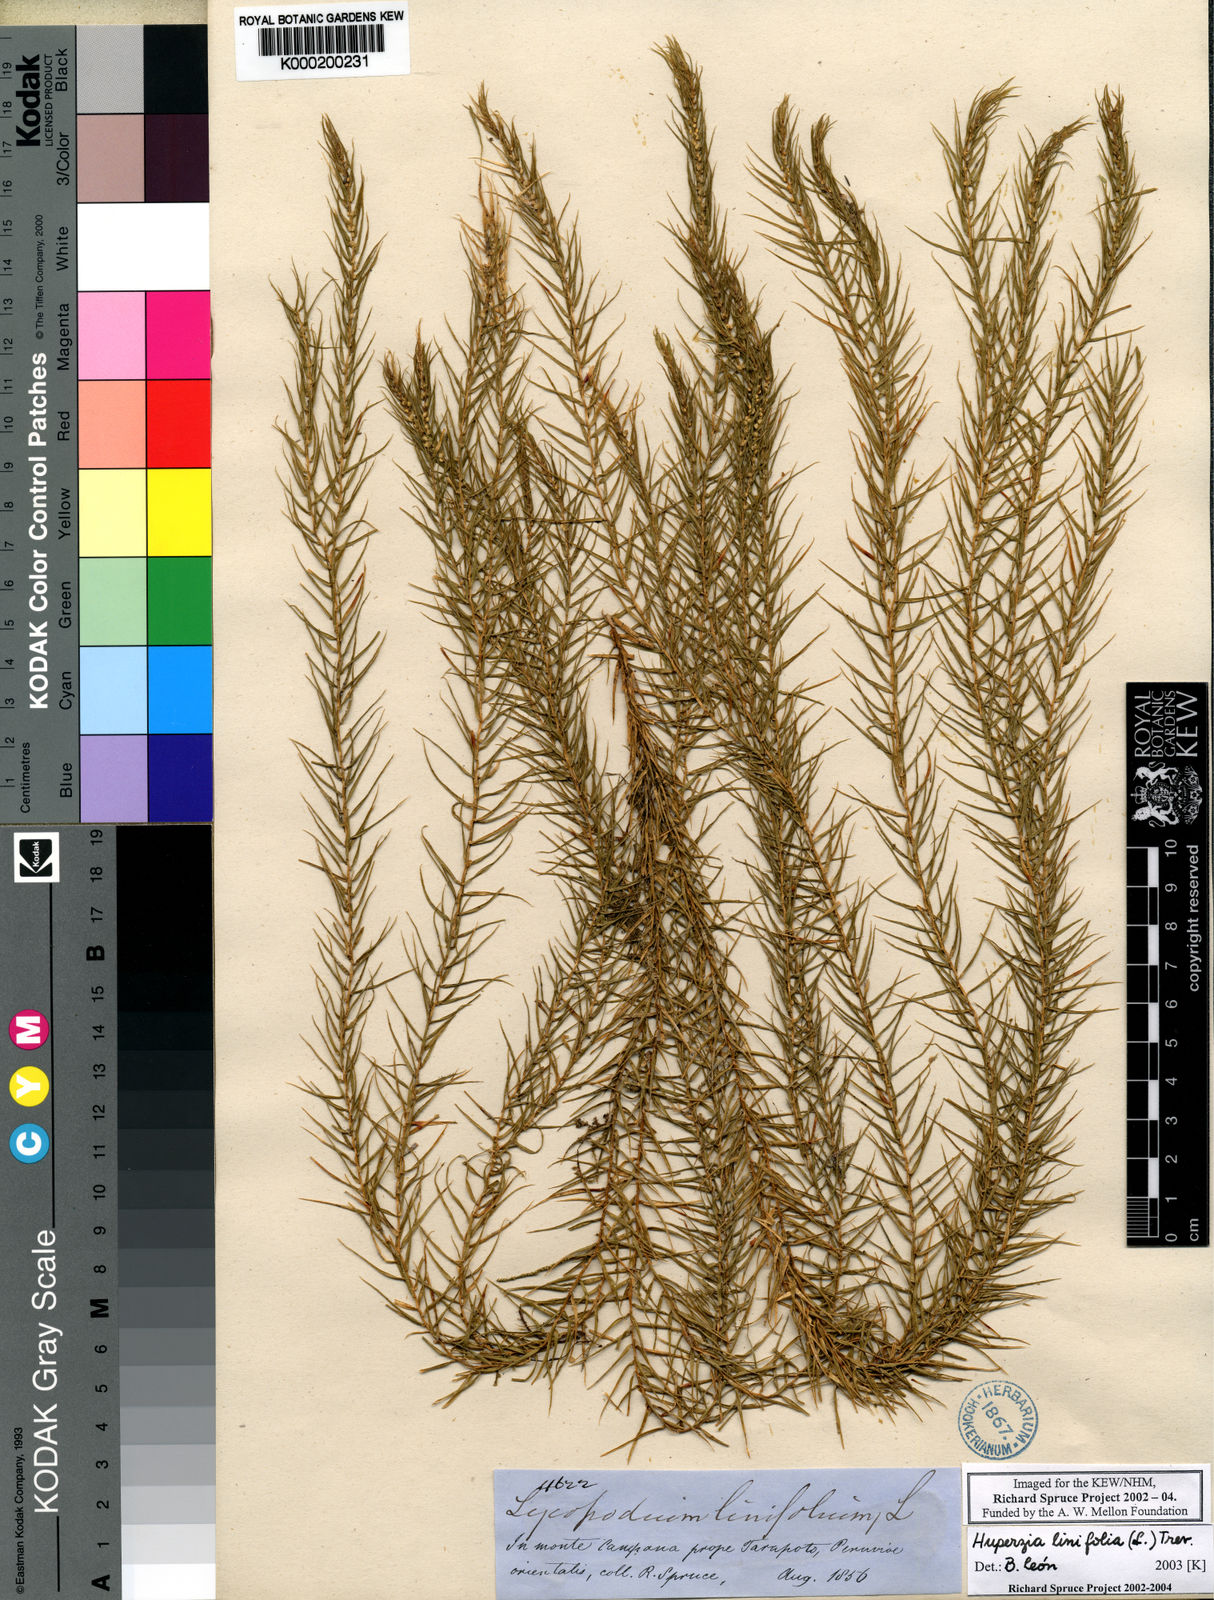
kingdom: Plantae
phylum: Tracheophyta
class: Lycopodiopsida
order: Lycopodiales
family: Lycopodiaceae
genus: Phlegmariurus
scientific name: Phlegmariurus linifolius
